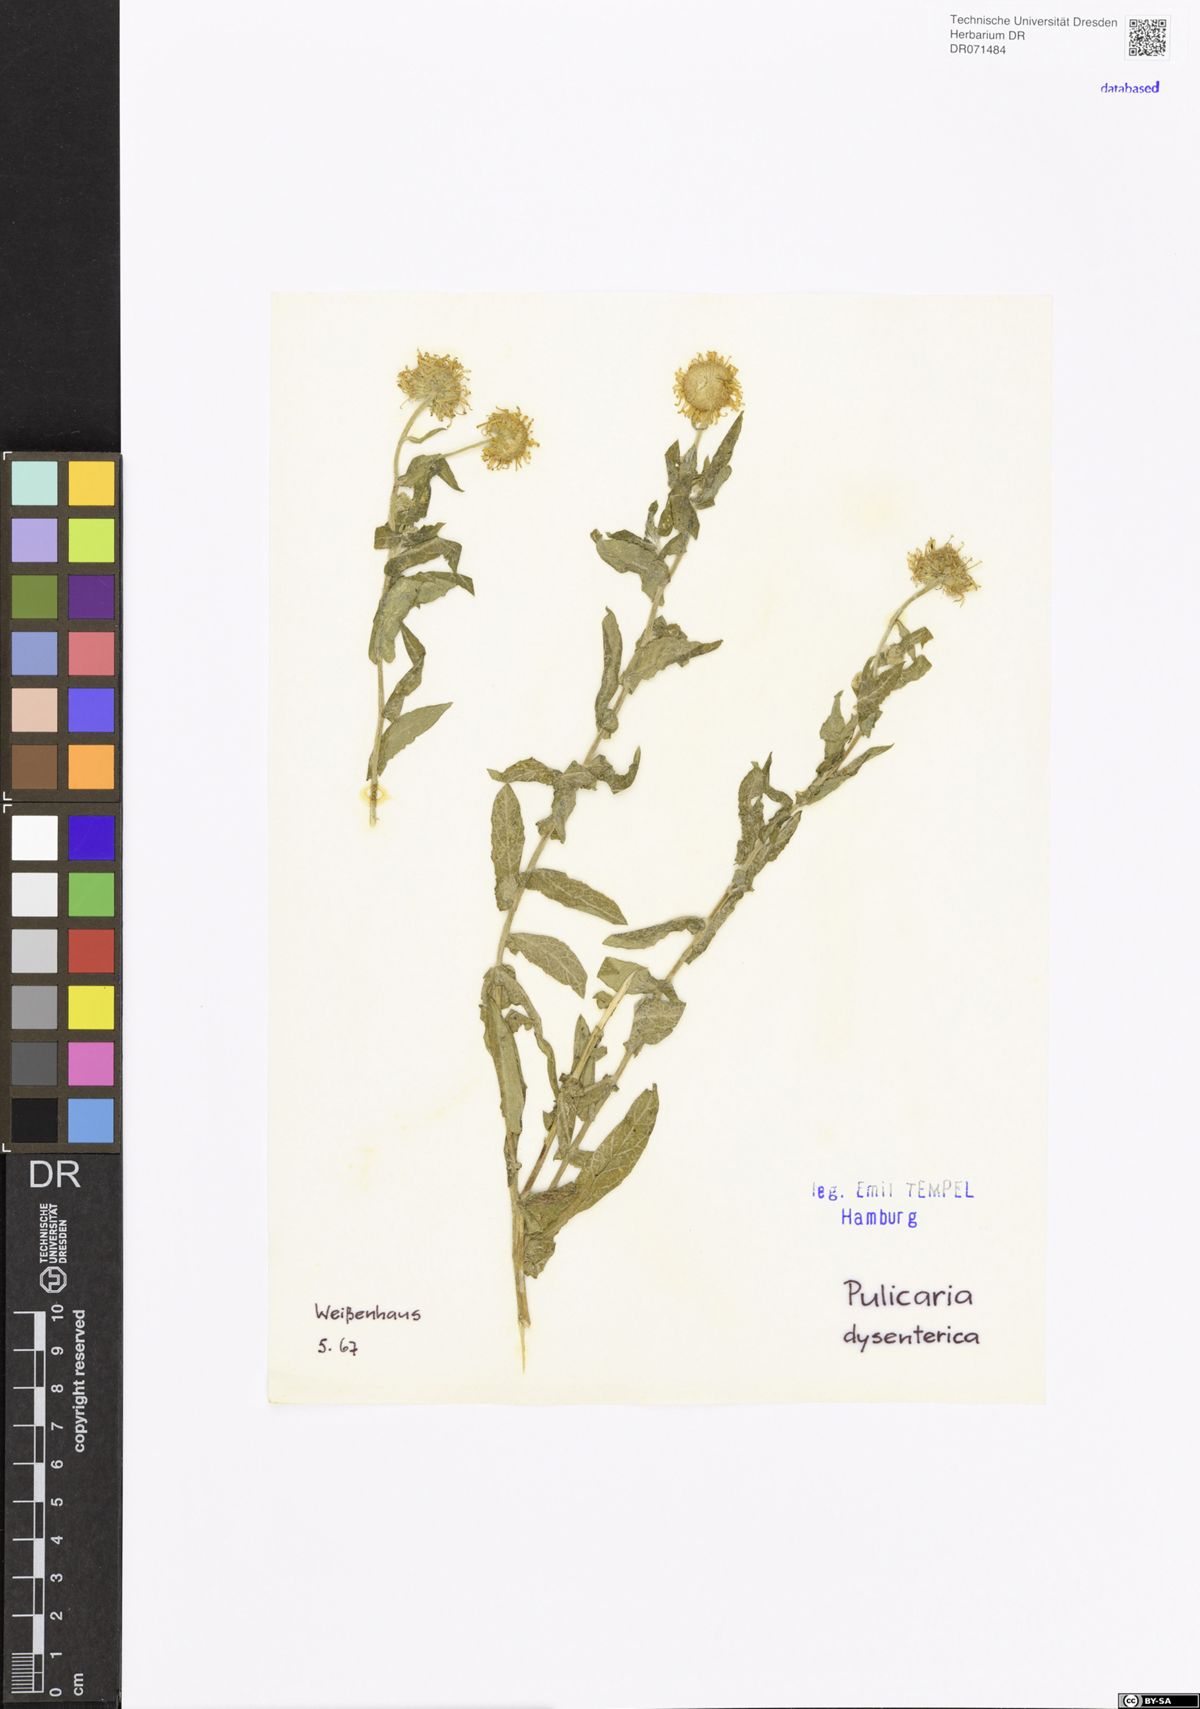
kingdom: Plantae
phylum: Tracheophyta
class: Magnoliopsida
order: Asterales
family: Asteraceae
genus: Pulicaria
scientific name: Pulicaria dysenterica
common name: Common fleabane
